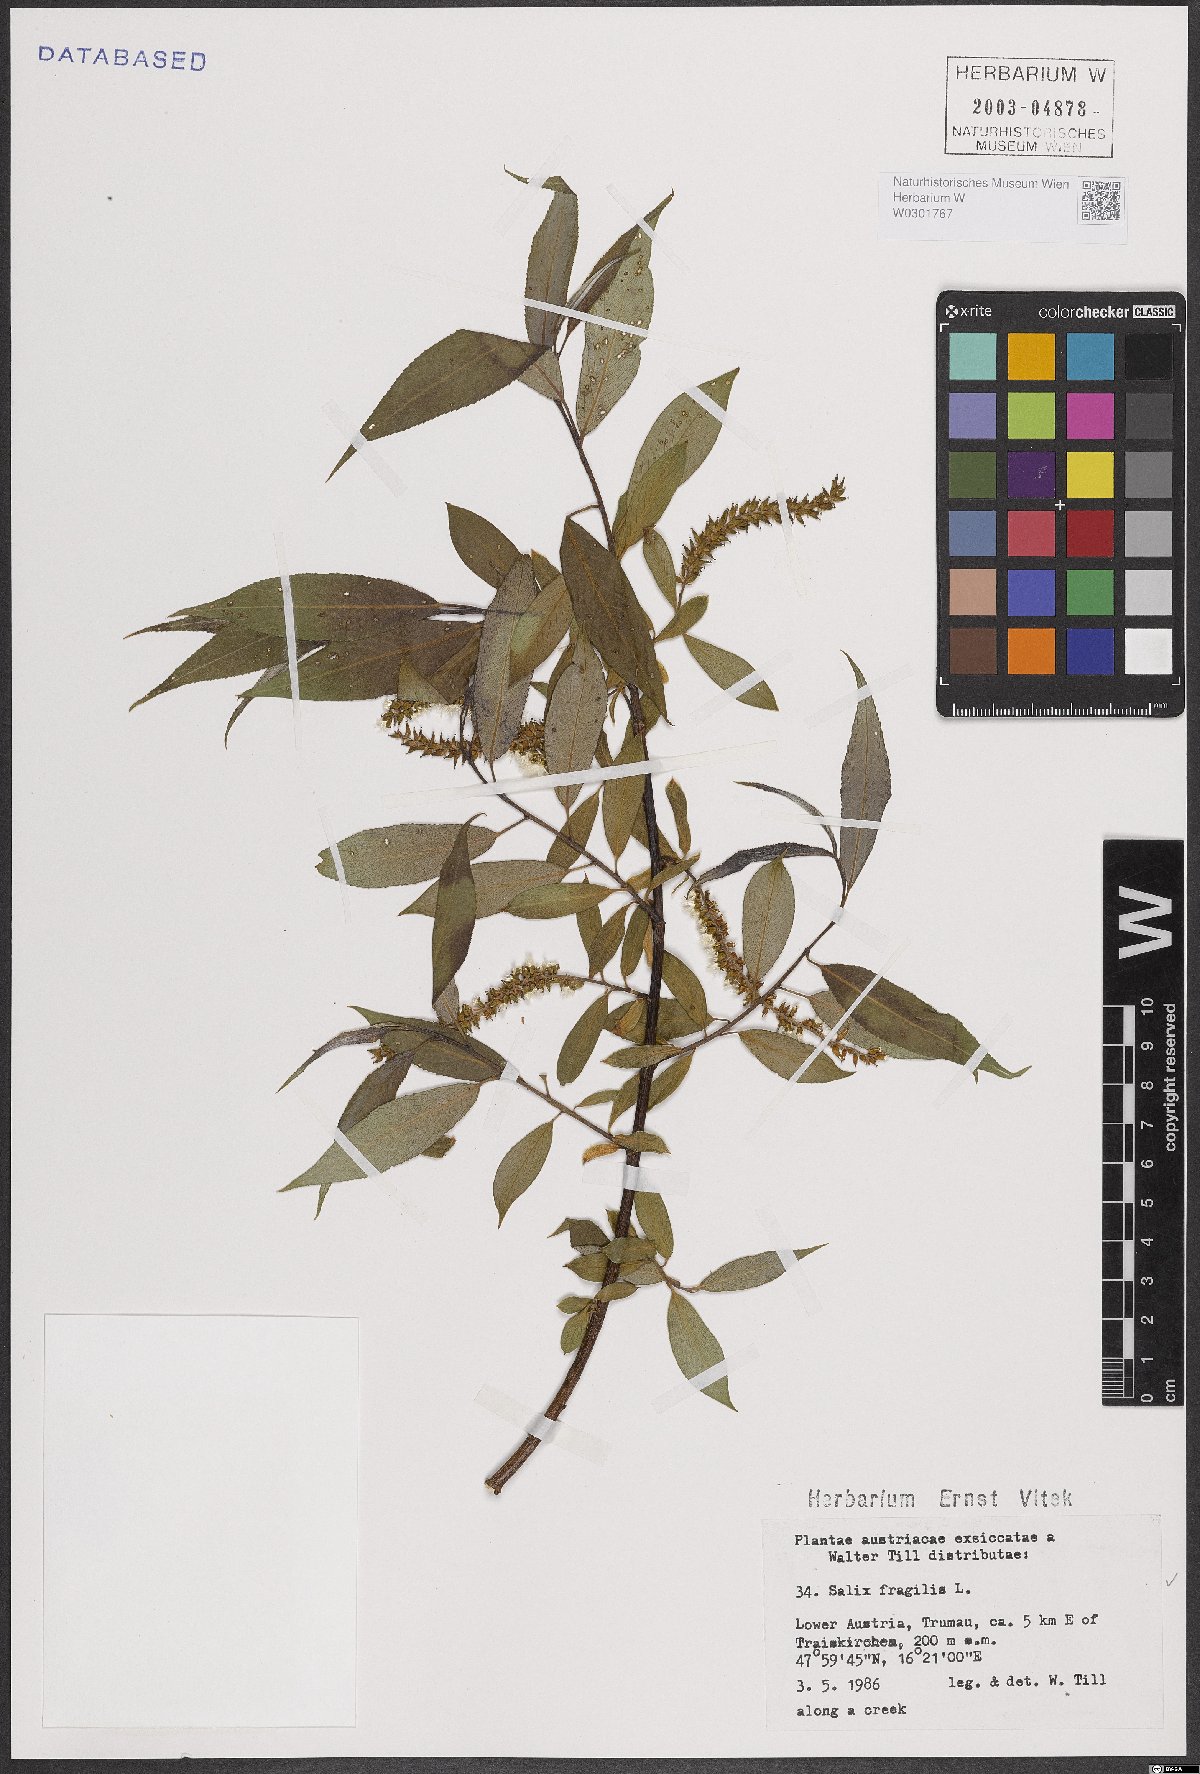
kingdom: Plantae
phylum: Tracheophyta
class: Magnoliopsida
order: Malpighiales
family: Salicaceae
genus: Salix
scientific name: Salix fragilis
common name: Crack willow
